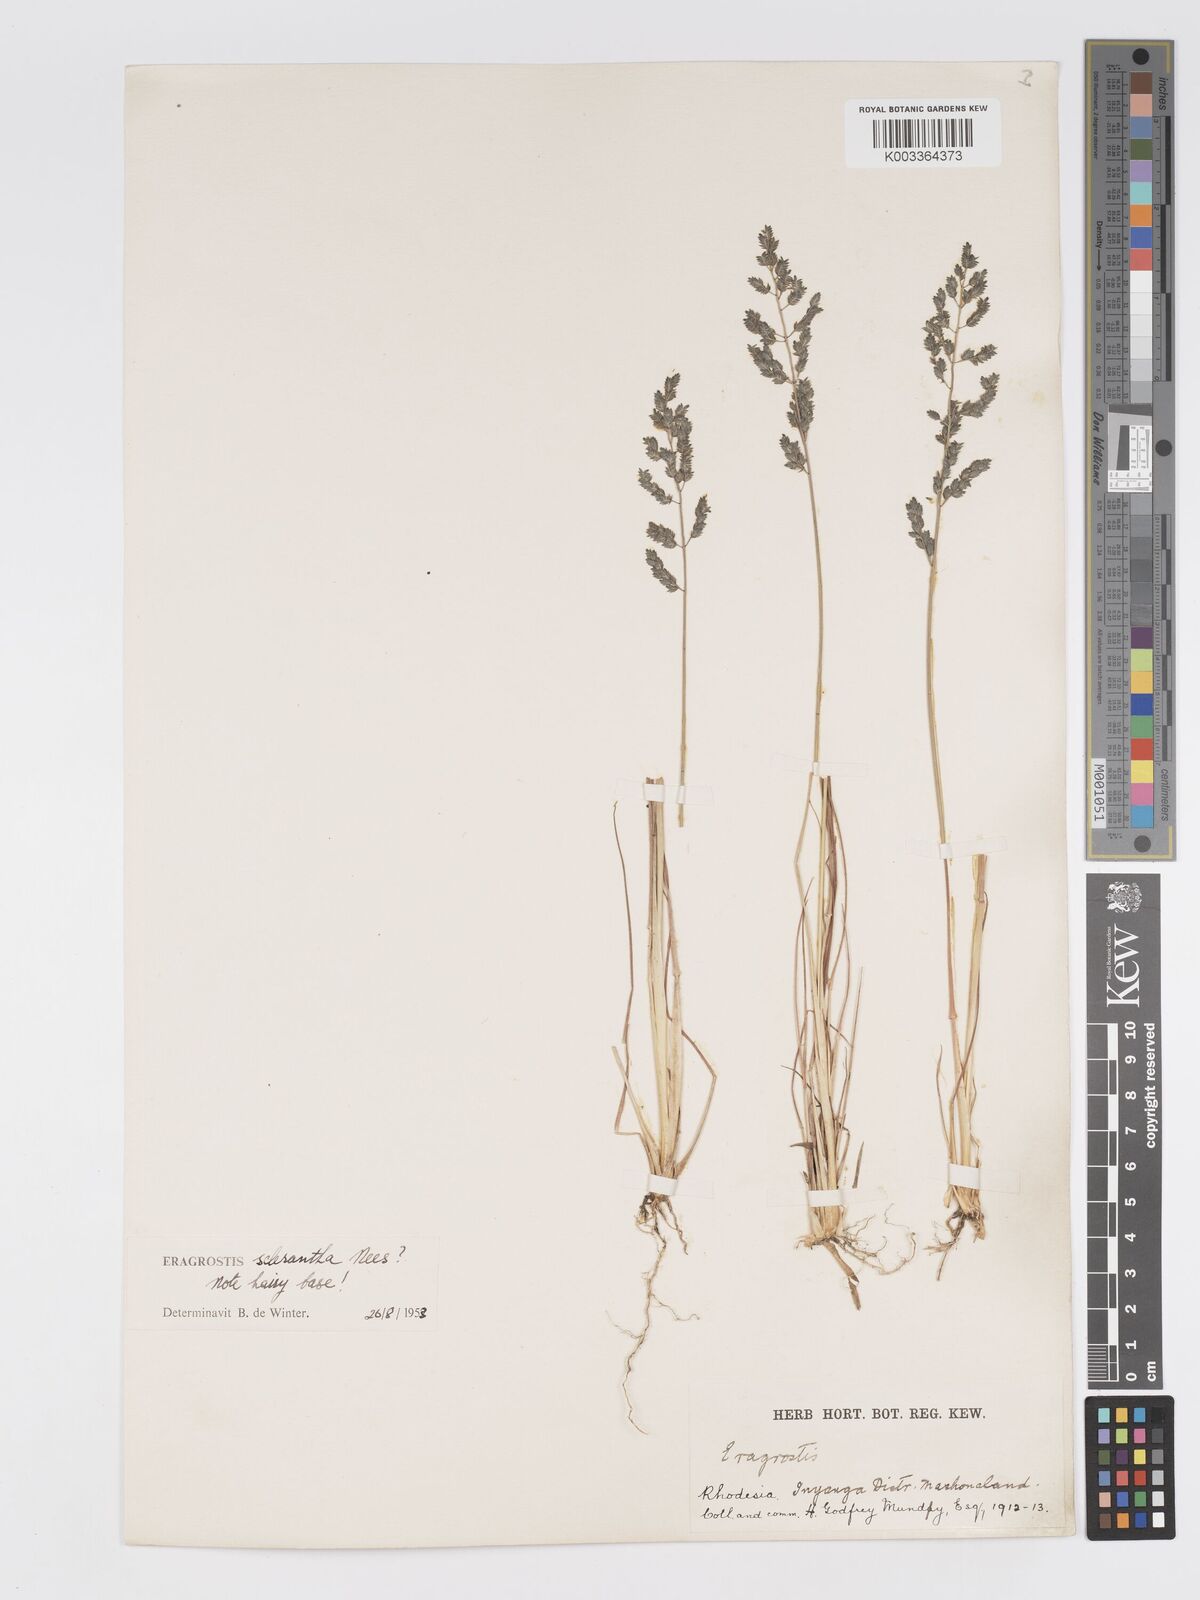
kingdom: Plantae
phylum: Tracheophyta
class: Liliopsida
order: Poales
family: Poaceae
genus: Eragrostis
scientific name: Eragrostis racemosa
